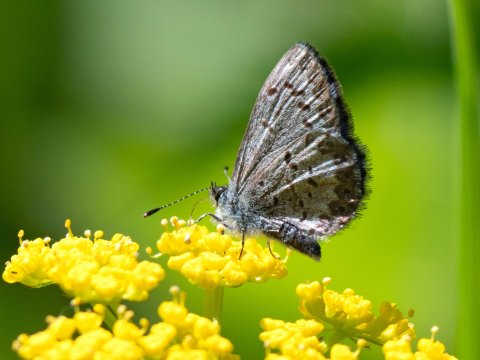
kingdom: Animalia
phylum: Arthropoda
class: Insecta
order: Lepidoptera
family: Lycaenidae
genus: Celastrina
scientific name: Celastrina lucia
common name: Northern Spring Azure
